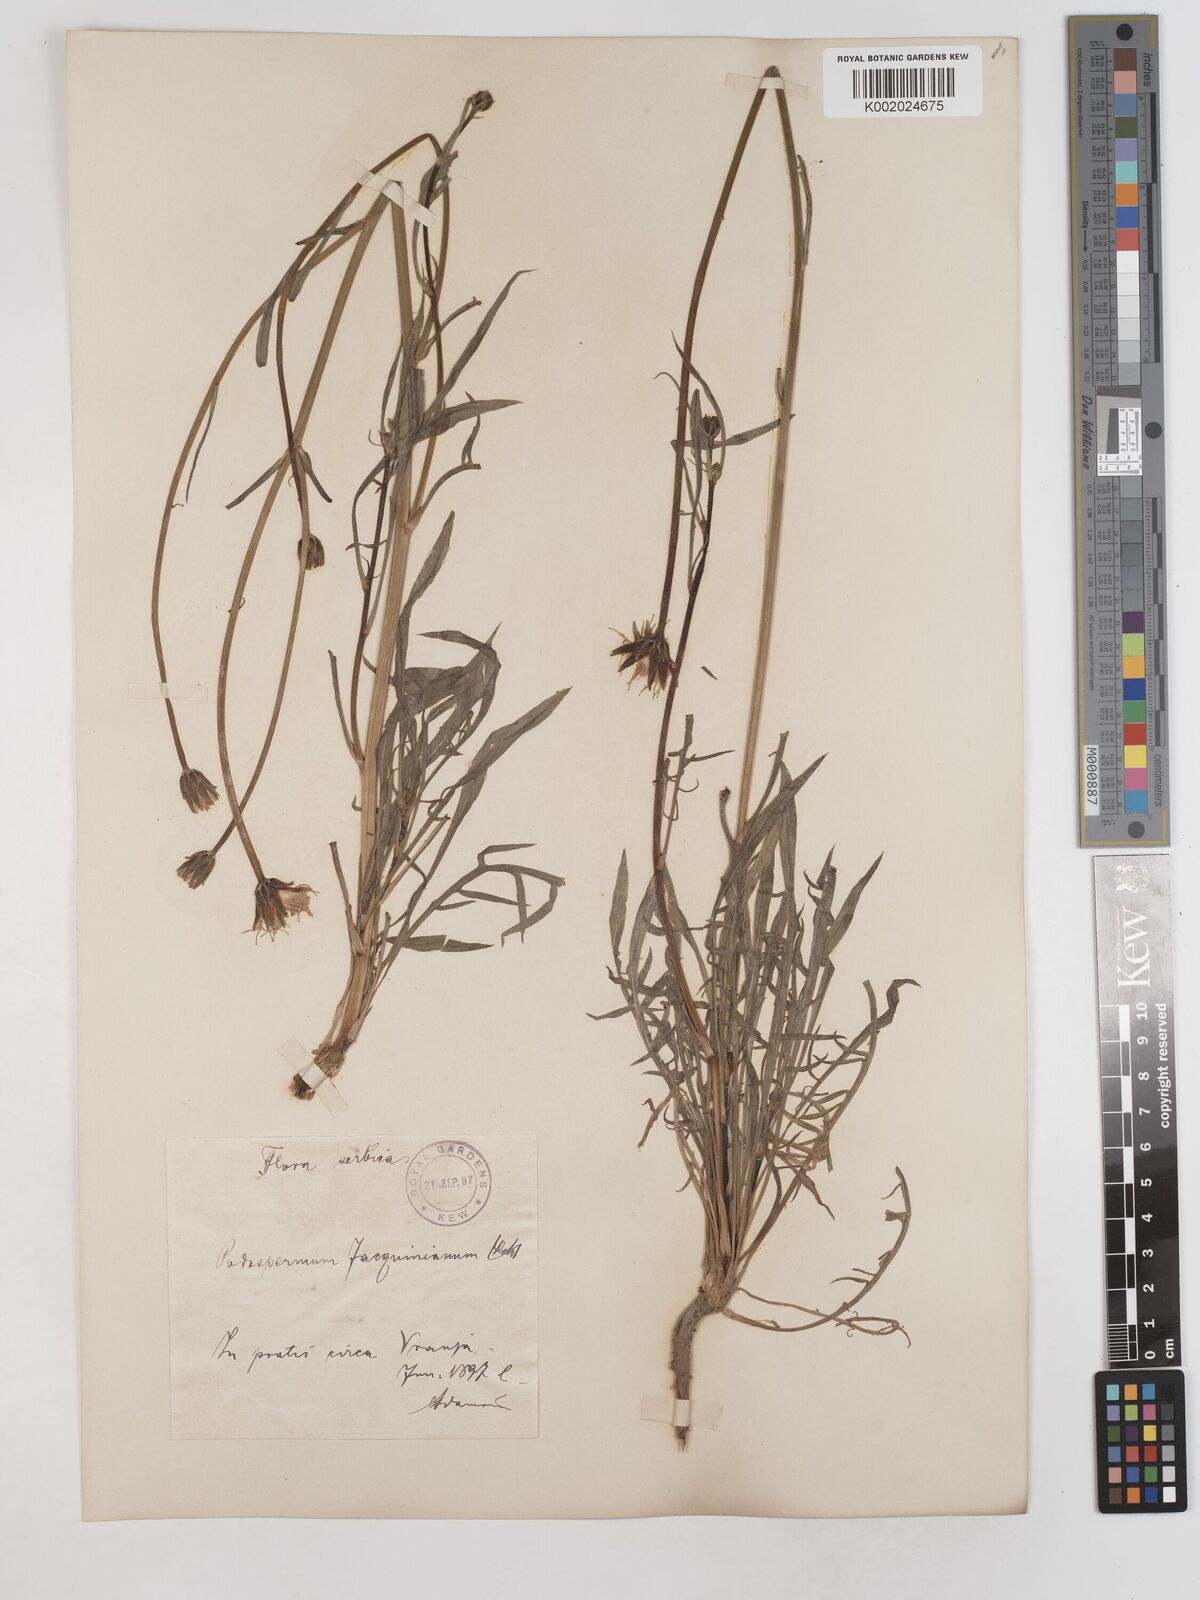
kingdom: Plantae
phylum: Tracheophyta
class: Magnoliopsida
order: Asterales
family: Asteraceae
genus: Scorzonera
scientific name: Scorzonera cana
